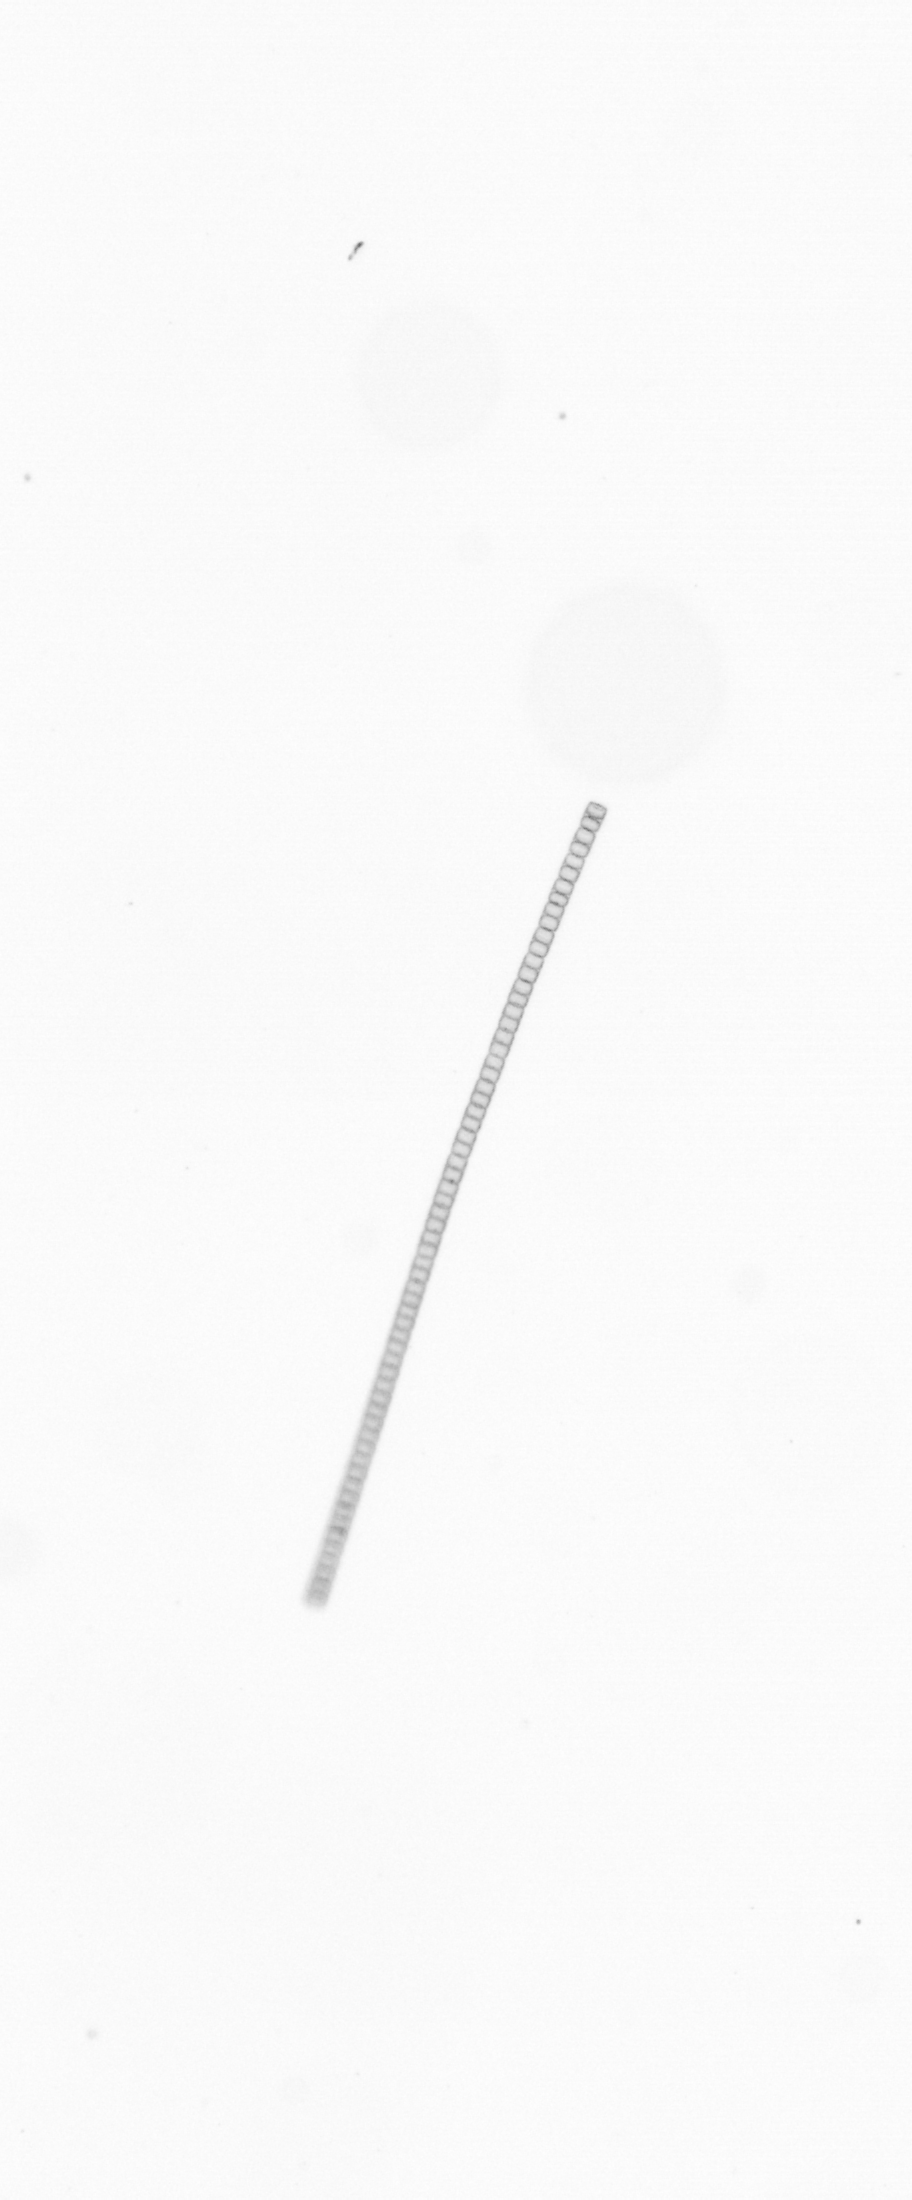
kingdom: Chromista
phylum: Ochrophyta
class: Bacillariophyceae
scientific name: Bacillariophyceae
